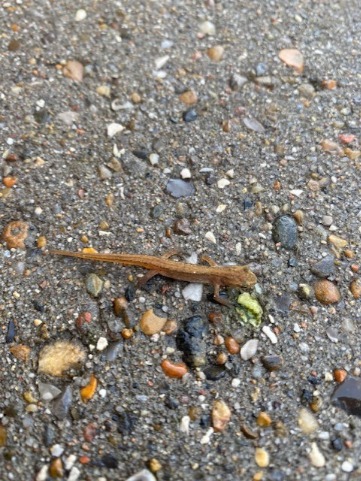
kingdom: Animalia
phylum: Chordata
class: Amphibia
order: Caudata
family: Salamandridae
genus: Lissotriton
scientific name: Lissotriton vulgaris
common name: Lille vandsalamander
